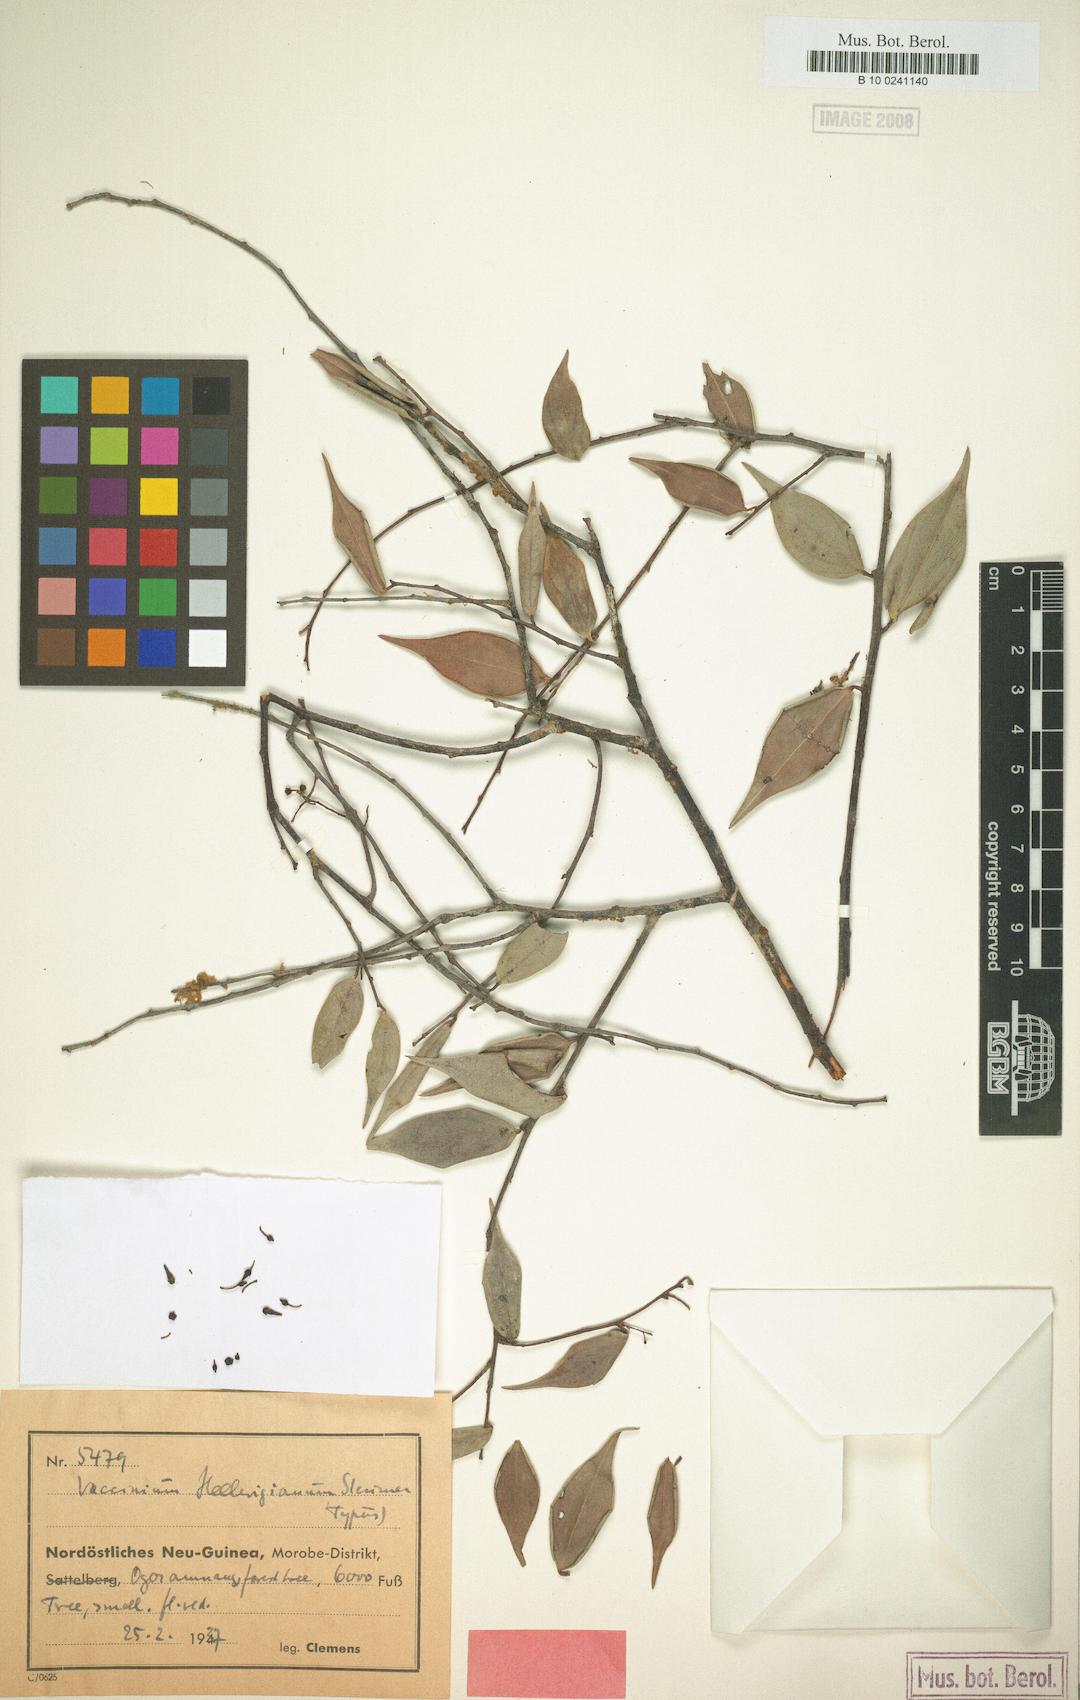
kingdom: Plantae
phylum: Tracheophyta
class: Magnoliopsida
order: Ericales
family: Ericaceae
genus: Vaccinium
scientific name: Vaccinium hellwigianum
